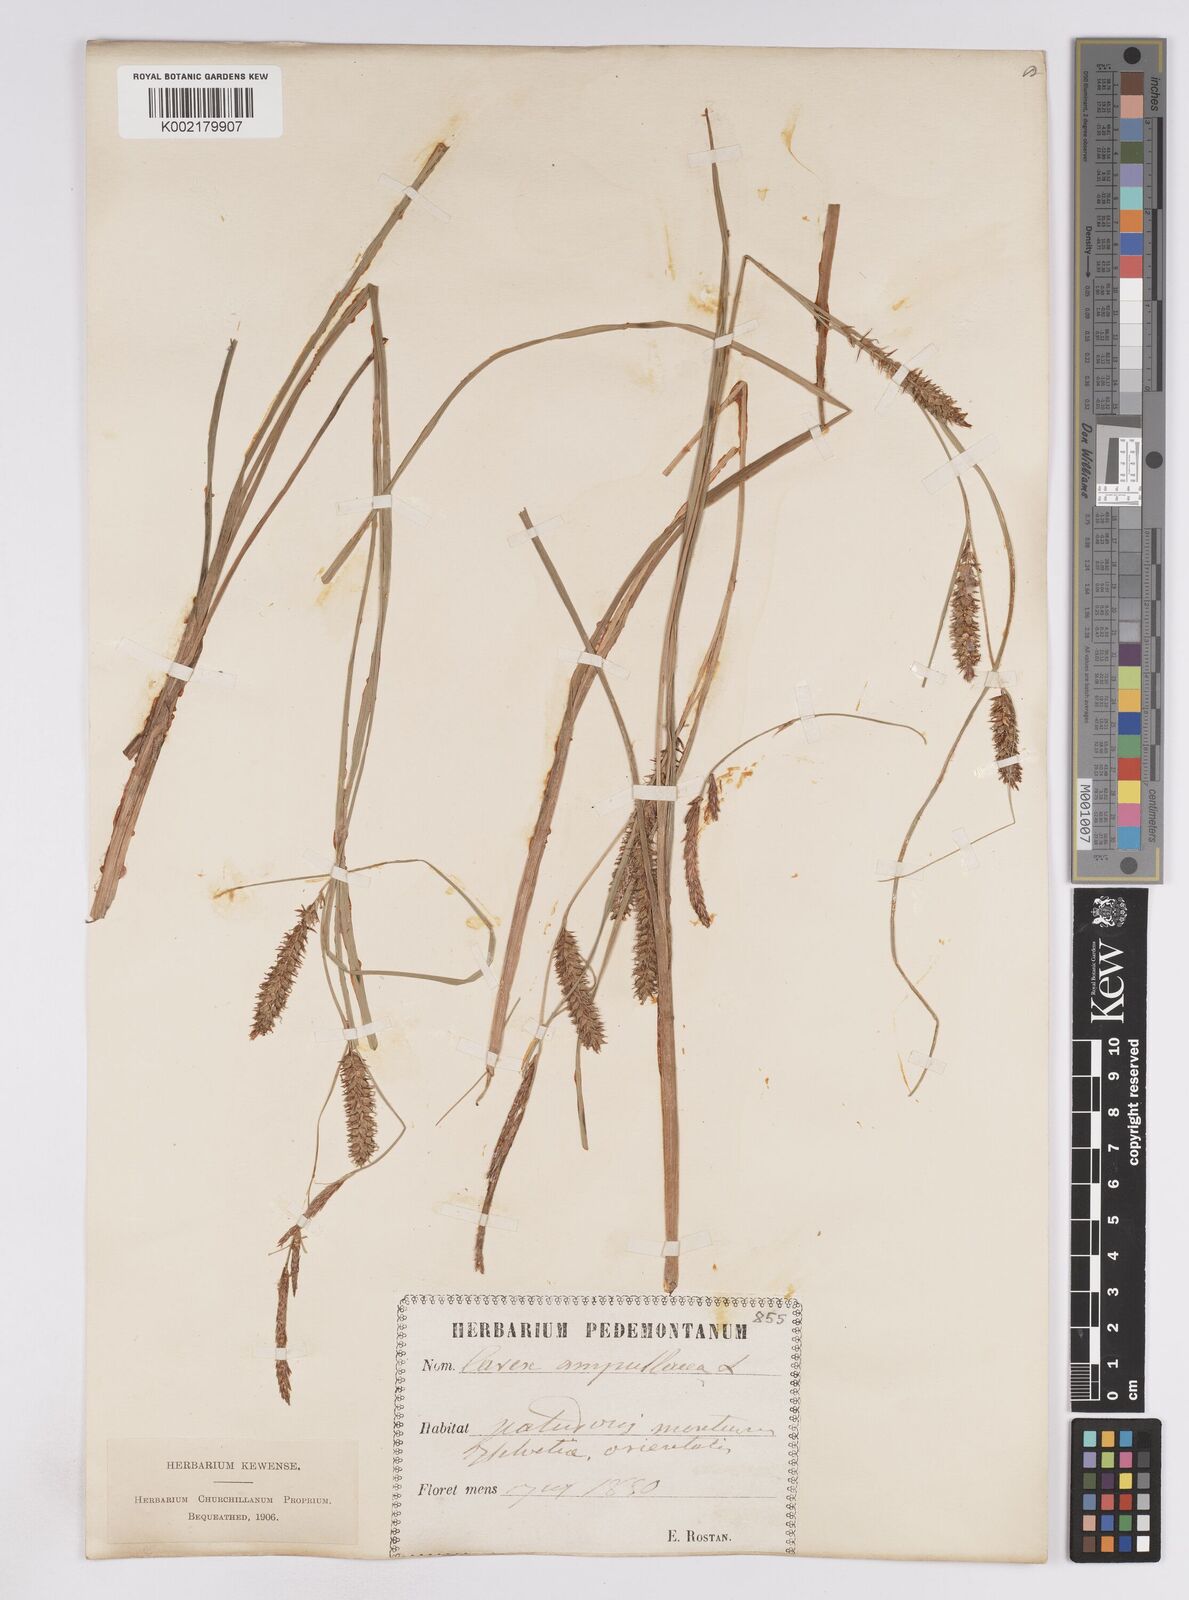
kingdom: Plantae
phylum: Tracheophyta
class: Liliopsida
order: Poales
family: Cyperaceae
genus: Carex
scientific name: Carex rostrata
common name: Bottle sedge
